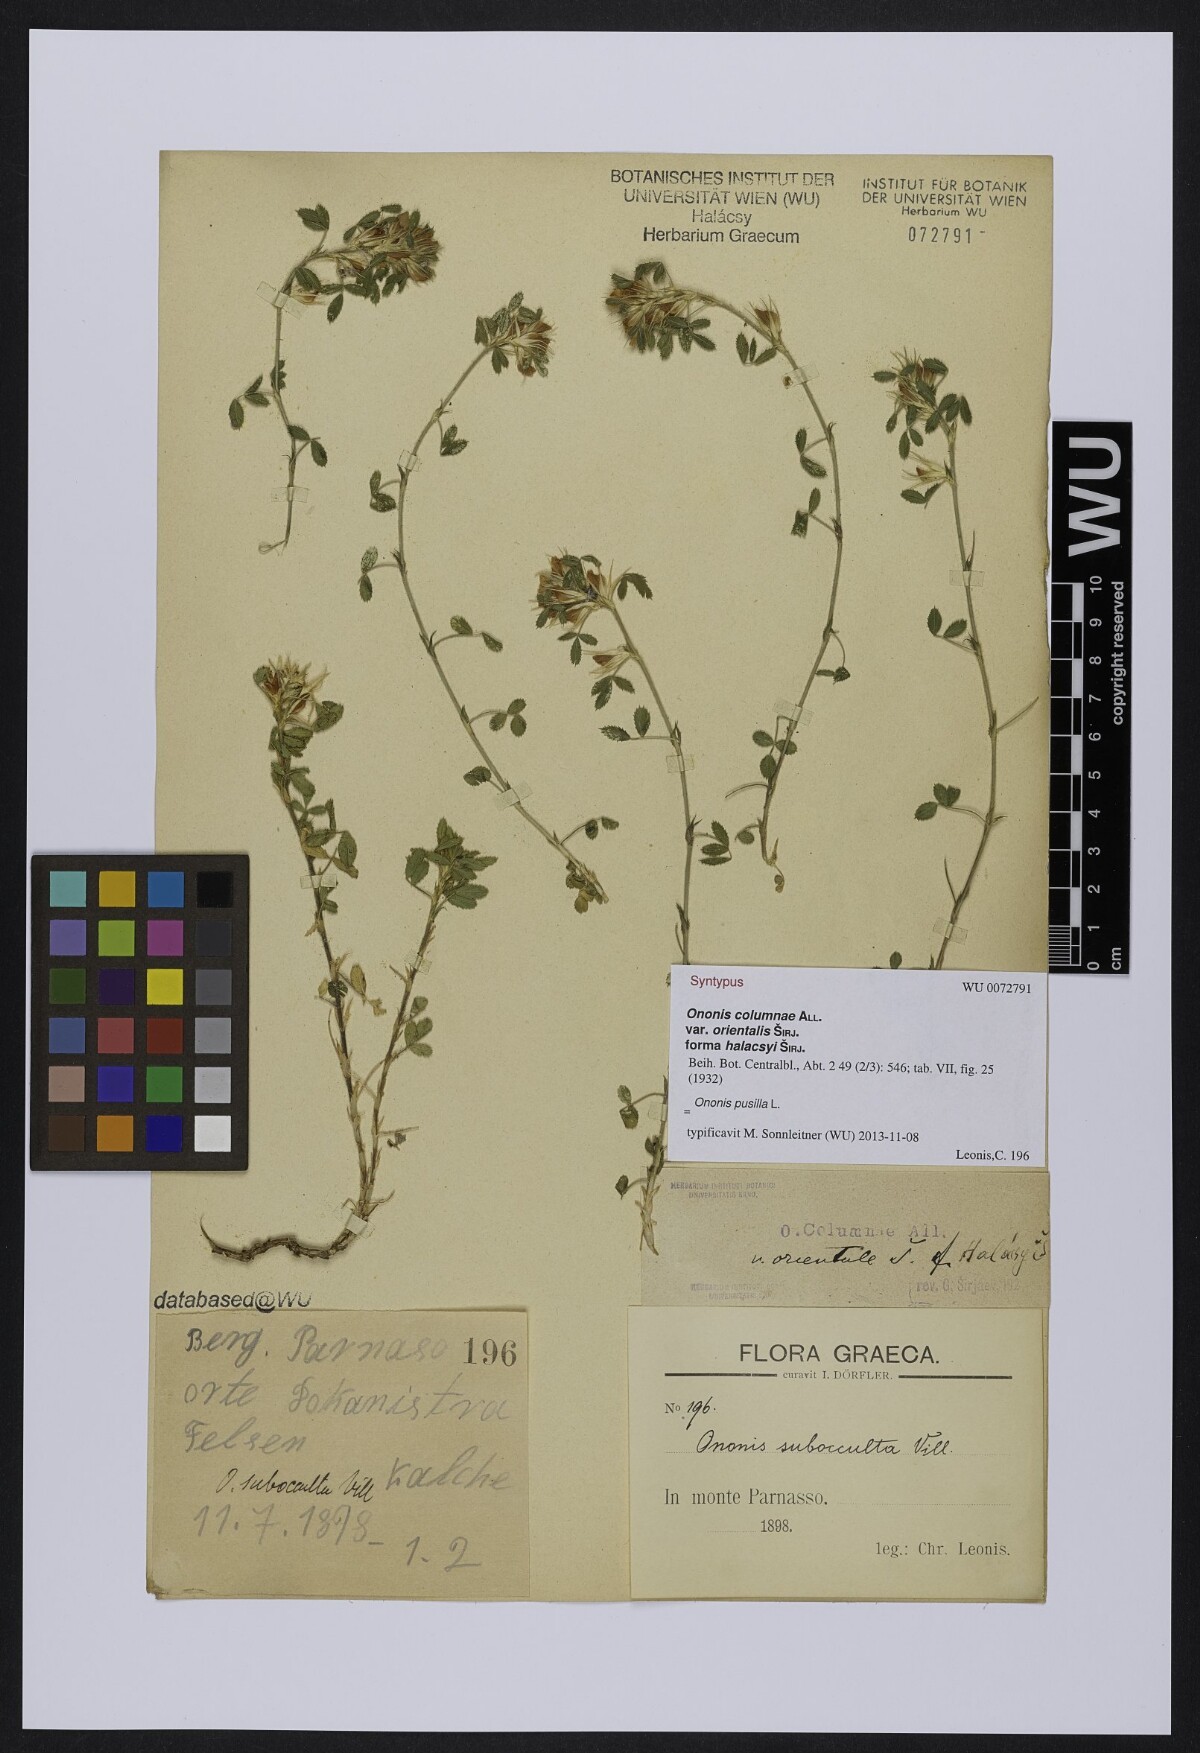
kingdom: Plantae
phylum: Tracheophyta
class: Magnoliopsida
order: Fabales
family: Fabaceae
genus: Ononis
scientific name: Ononis pusilla
